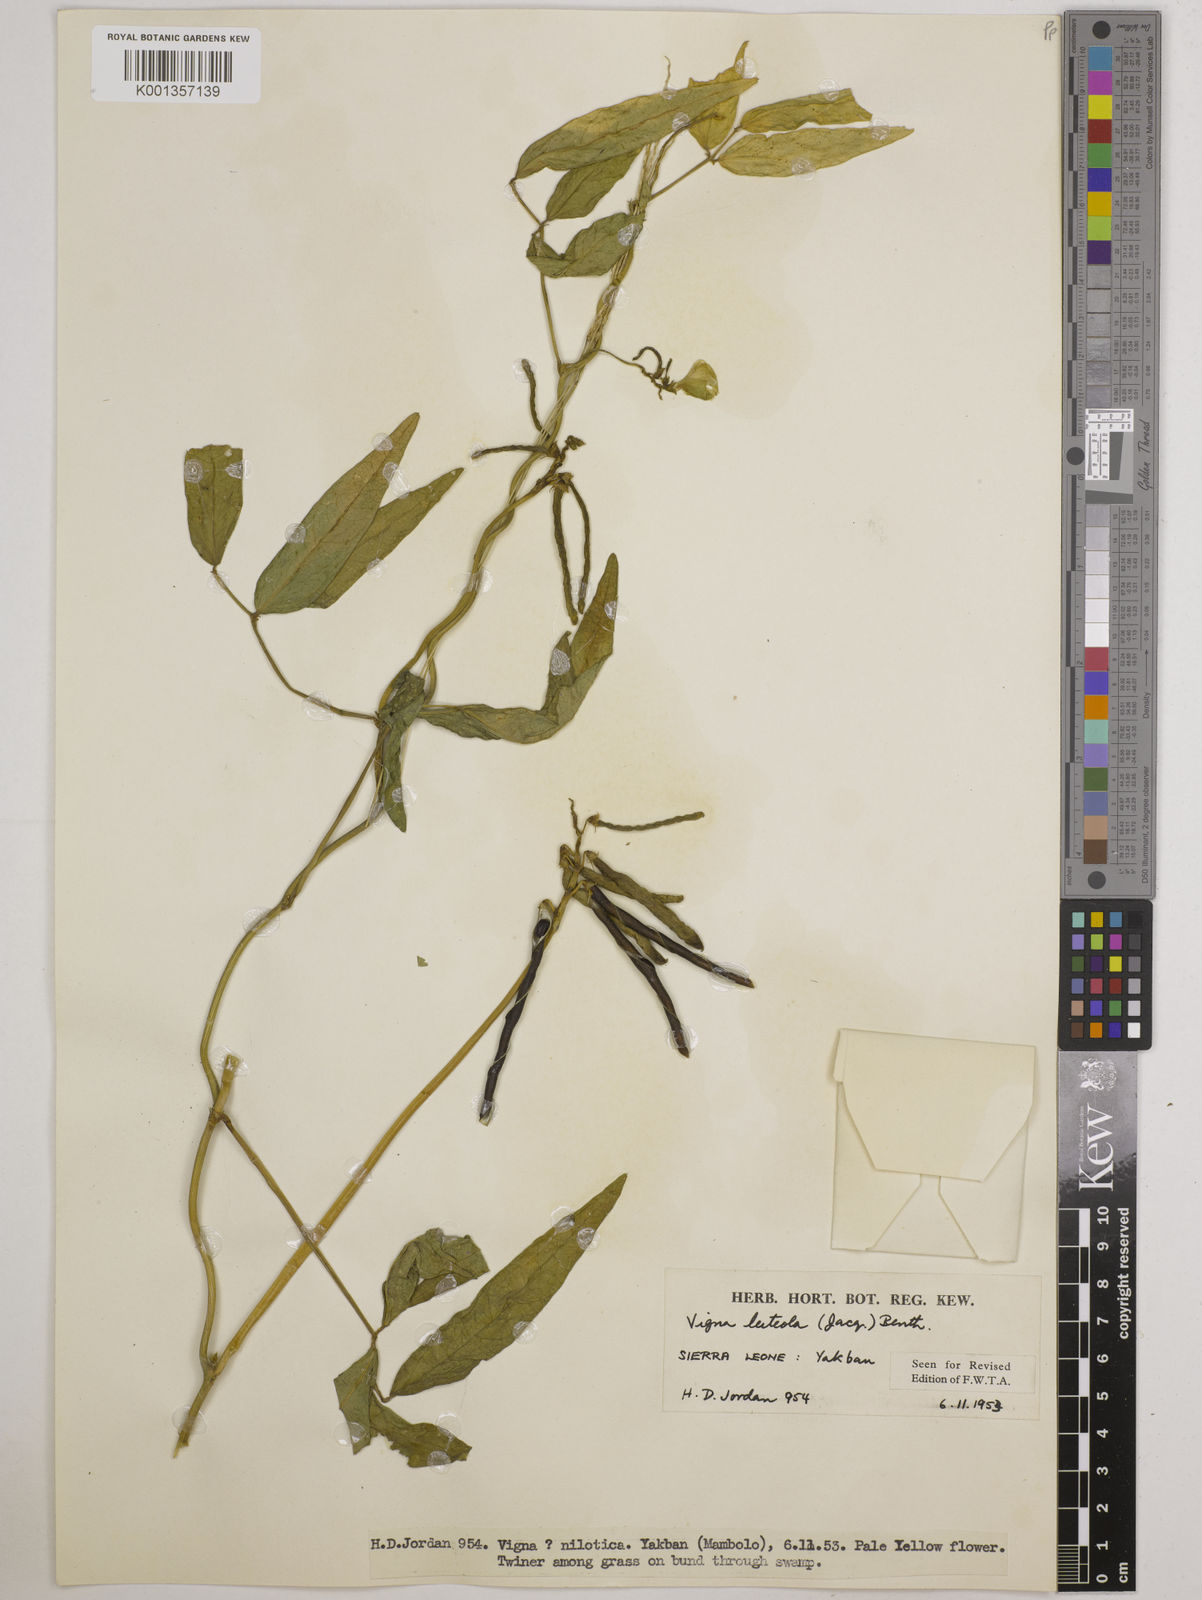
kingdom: Plantae
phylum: Tracheophyta
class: Magnoliopsida
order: Fabales
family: Fabaceae
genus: Vigna
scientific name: Vigna luteola
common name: Hairypod cowpea
